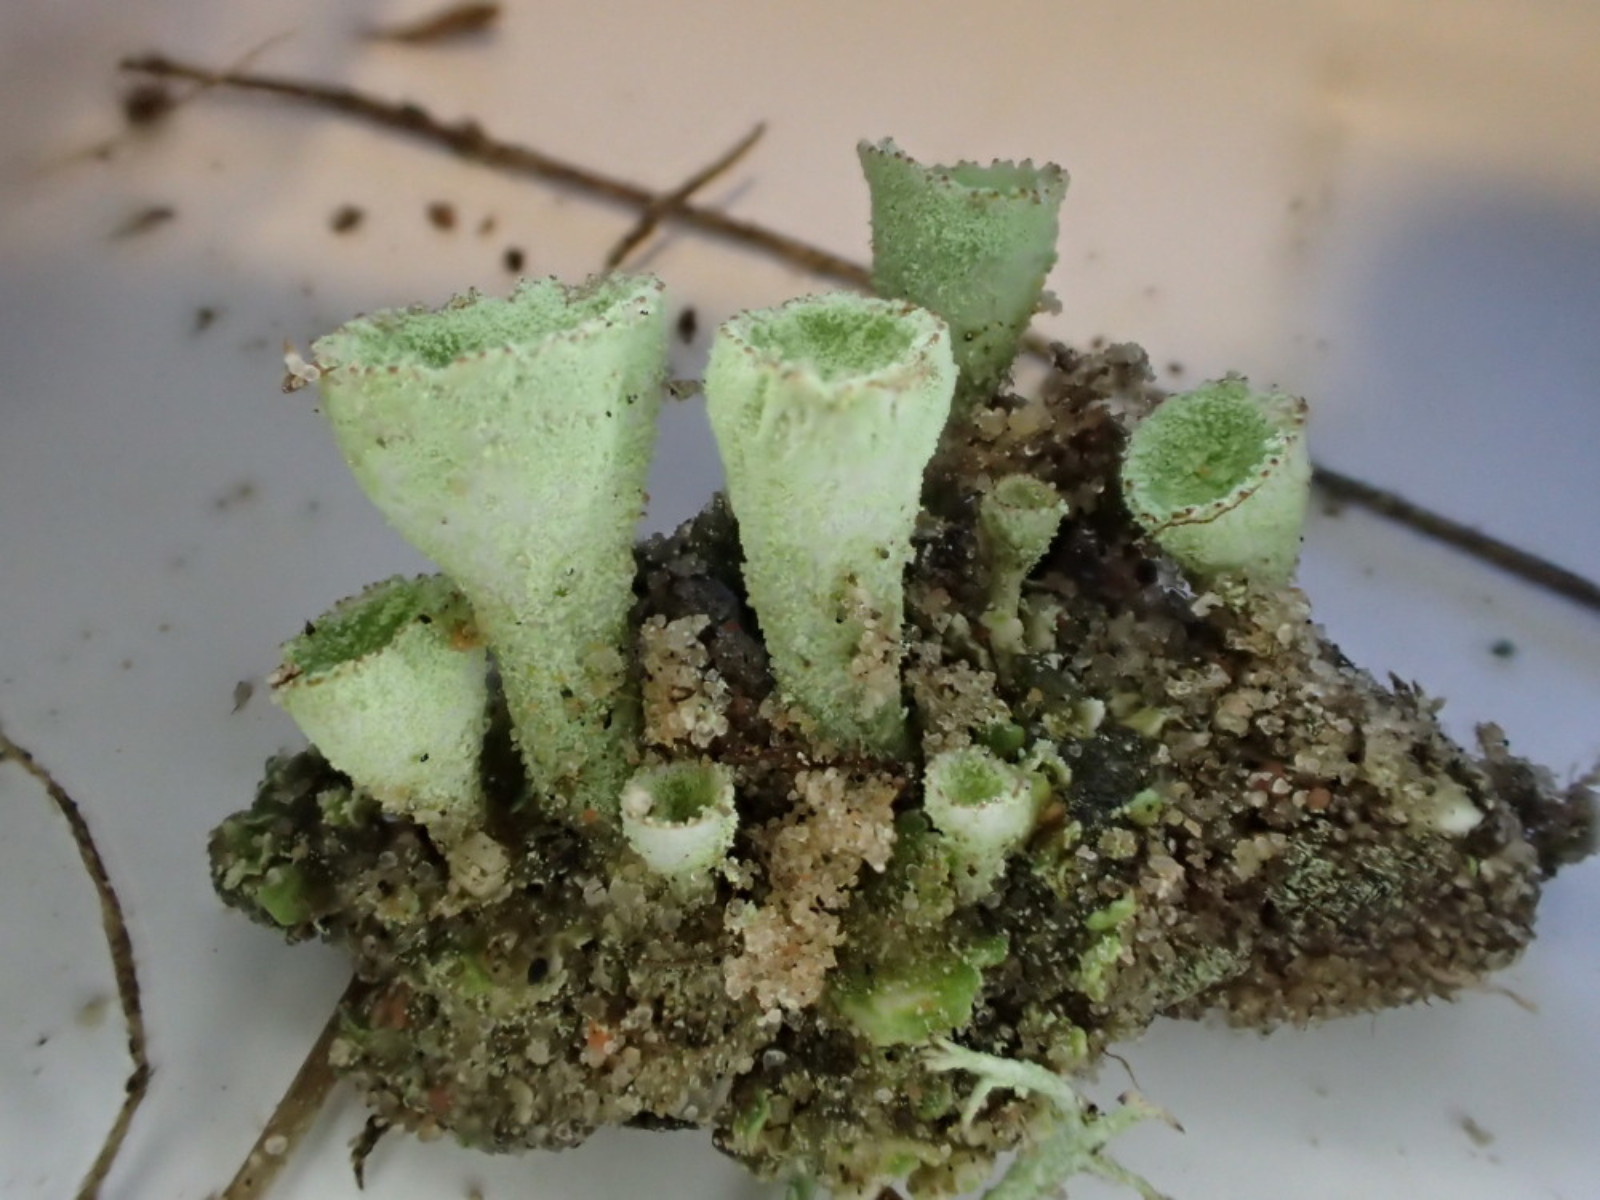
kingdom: Fungi
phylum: Ascomycota
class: Lecanoromycetes
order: Lecanorales
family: Cladoniaceae
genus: Cladonia
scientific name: Cladonia humilis
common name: lav bægerlav
